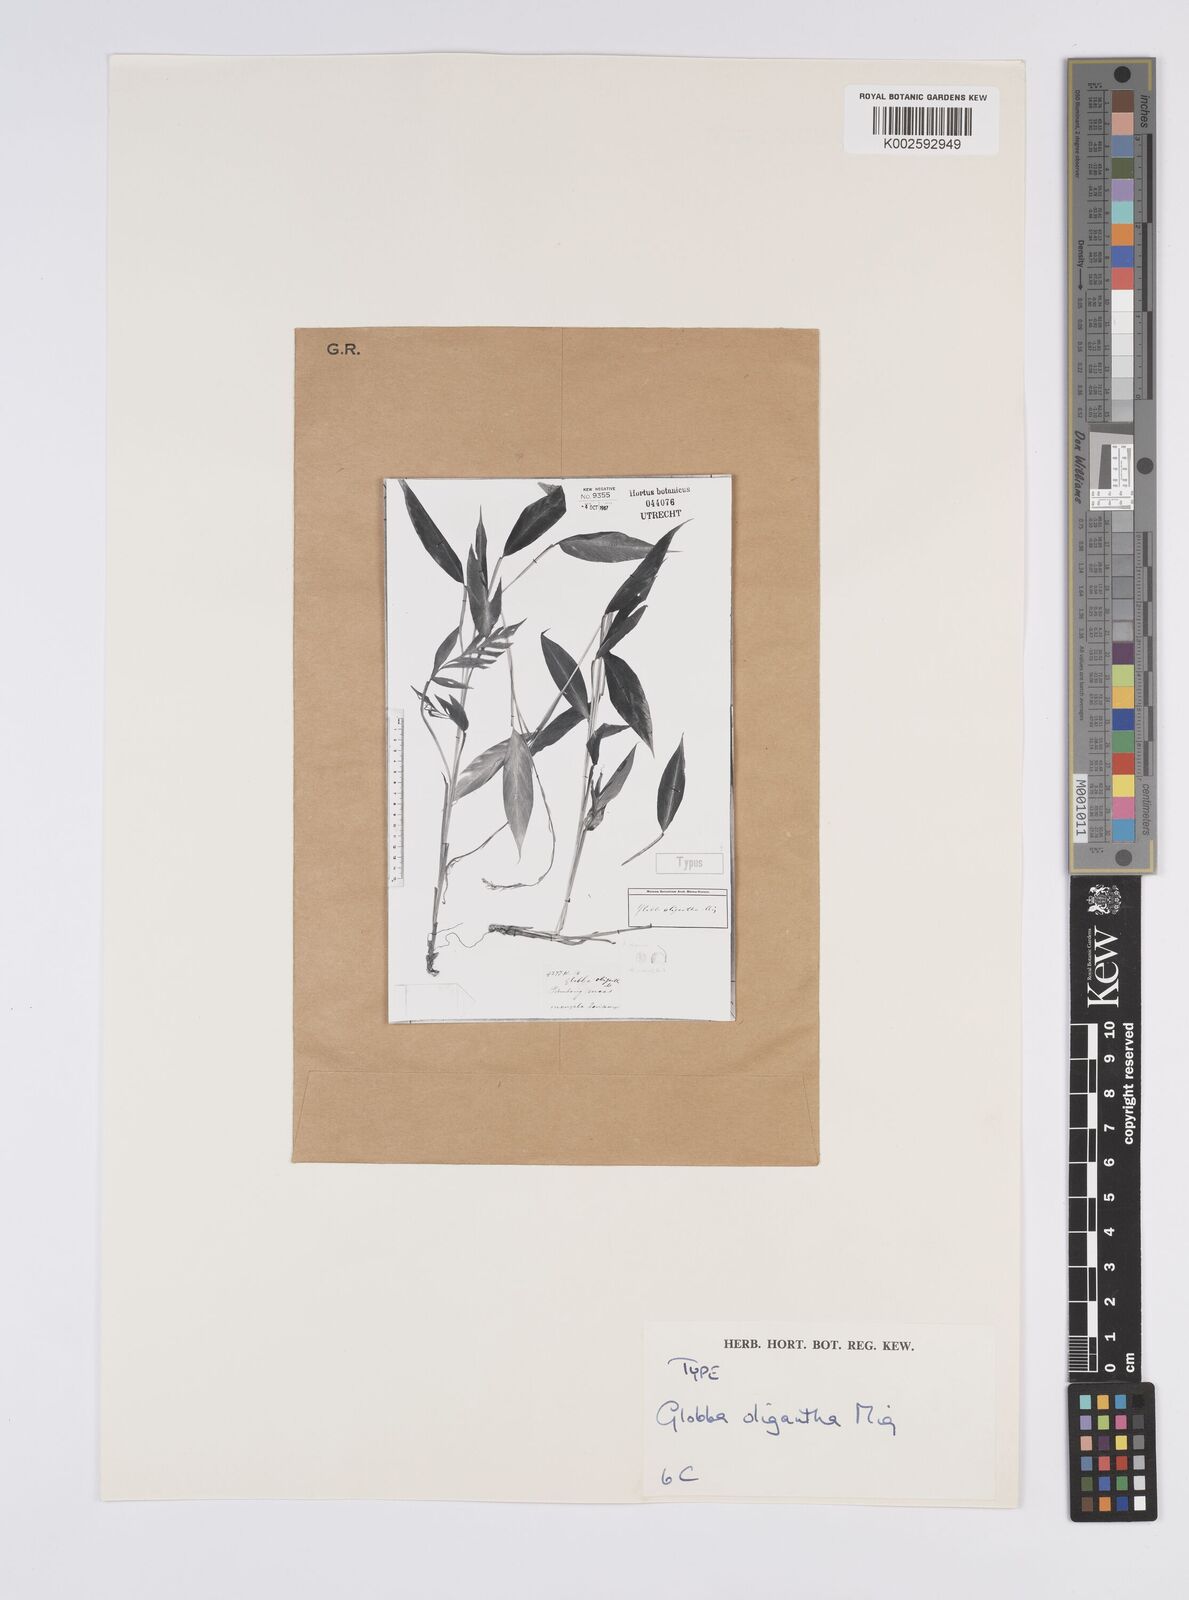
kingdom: Plantae
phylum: Tracheophyta
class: Liliopsida
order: Zingiberales
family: Zingiberaceae
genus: Globba
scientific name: Globba pendula
